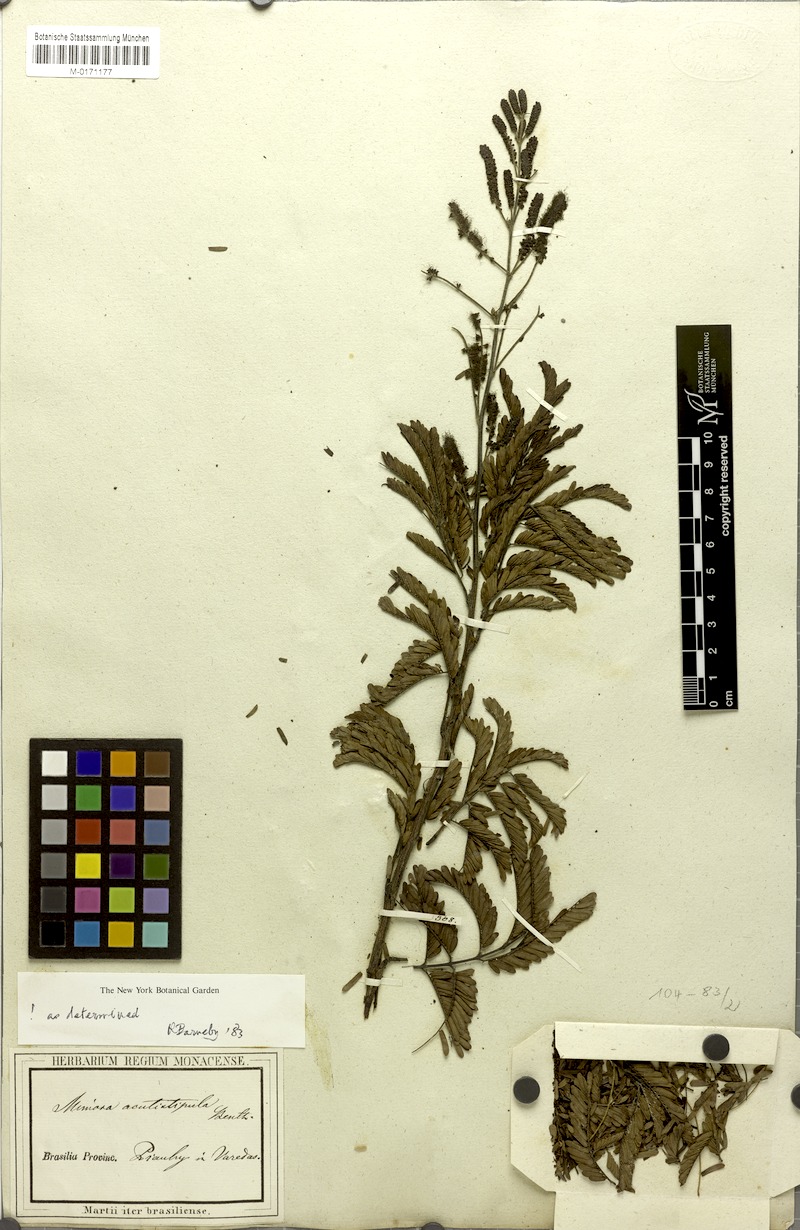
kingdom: Plantae
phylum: Tracheophyta
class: Magnoliopsida
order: Fabales
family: Fabaceae
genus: Mimosa
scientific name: Mimosa acutistipula
